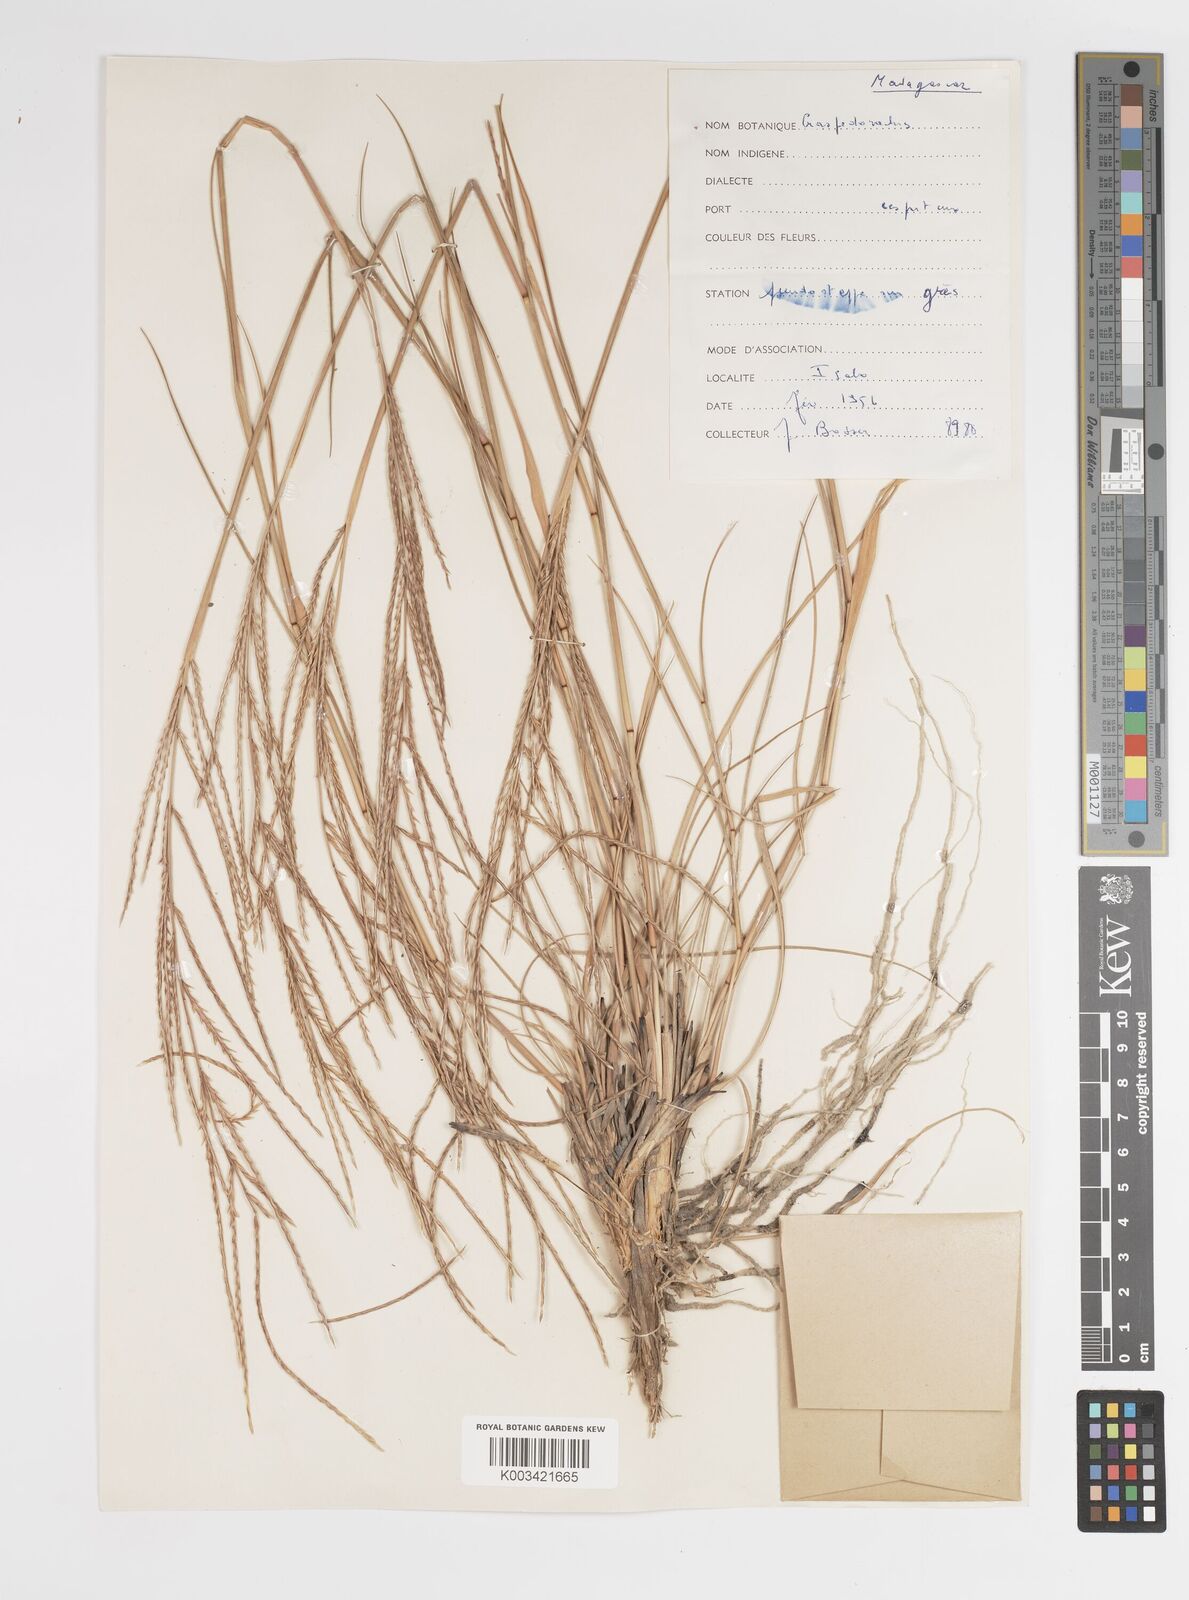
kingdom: Plantae
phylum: Tracheophyta
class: Liliopsida
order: Poales
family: Poaceae
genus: Craspedorhachis
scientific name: Craspedorhachis africana
